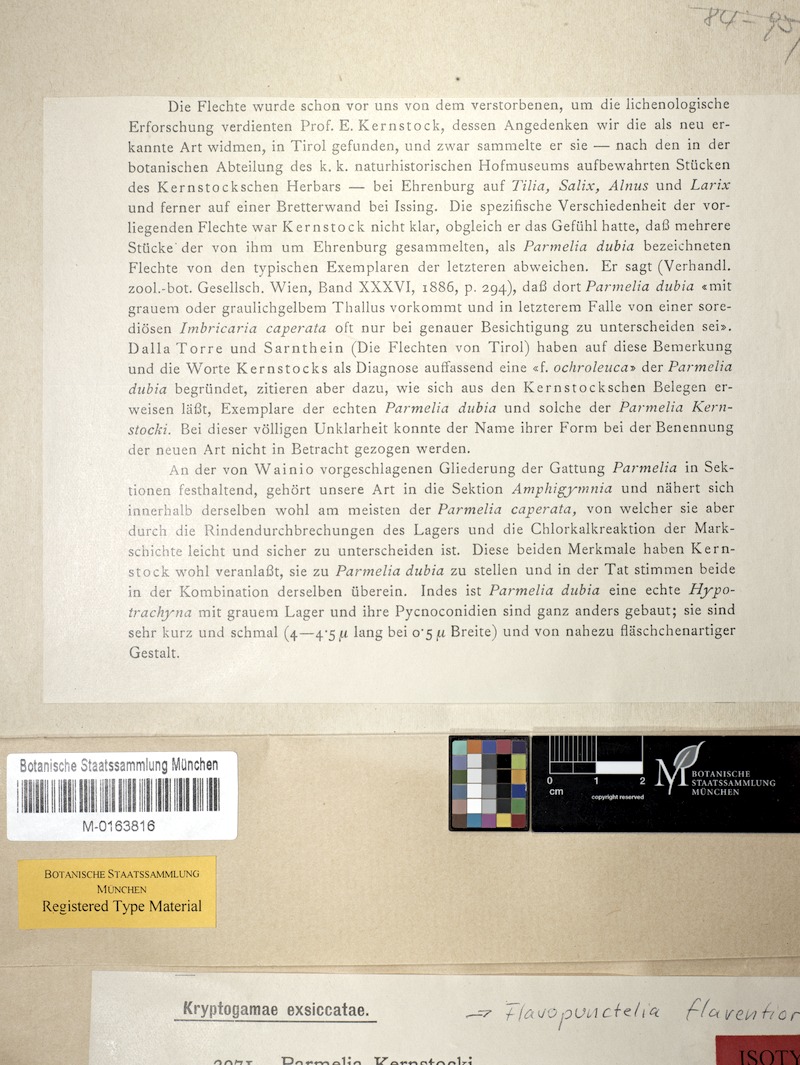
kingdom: Fungi
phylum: Ascomycota
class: Lecanoromycetes
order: Lecanorales
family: Parmeliaceae
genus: Flavopunctelia
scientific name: Flavopunctelia flaventior
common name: Speckled greenshield
